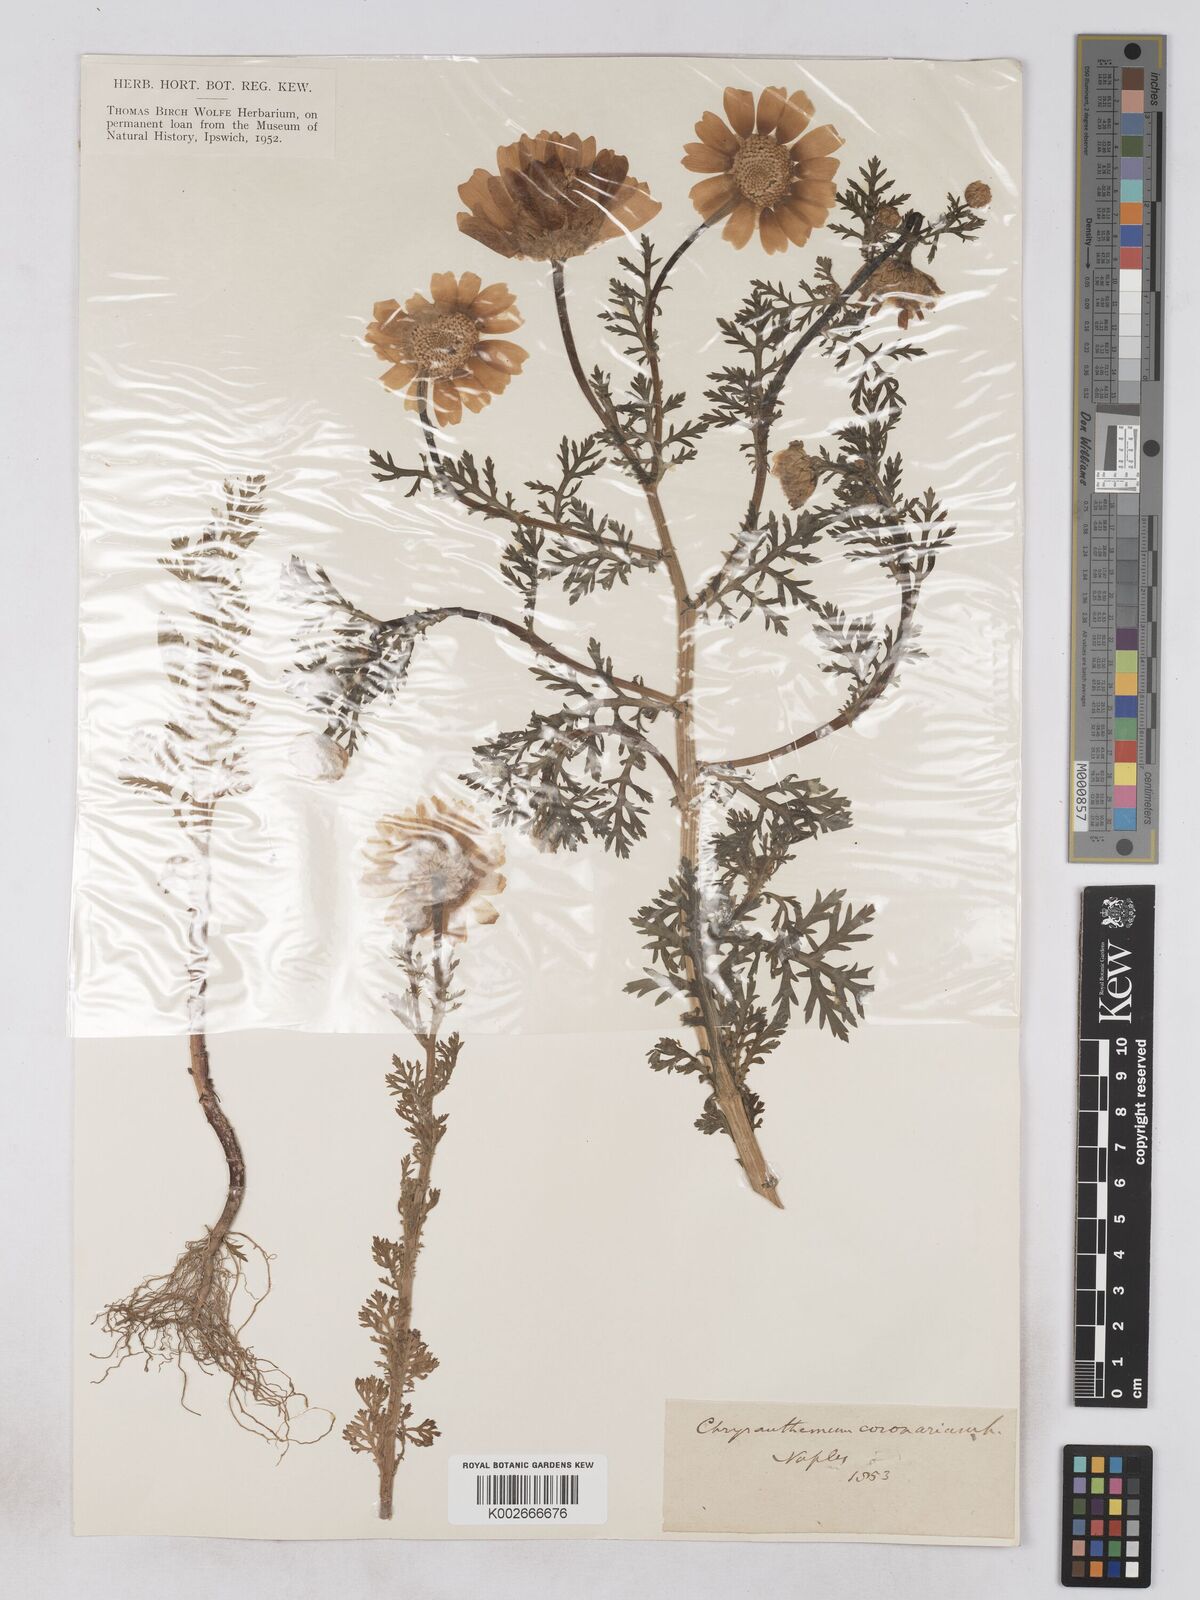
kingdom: Plantae
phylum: Tracheophyta
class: Magnoliopsida
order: Asterales
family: Asteraceae
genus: Glebionis
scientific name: Glebionis coronaria
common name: Crowndaisy
